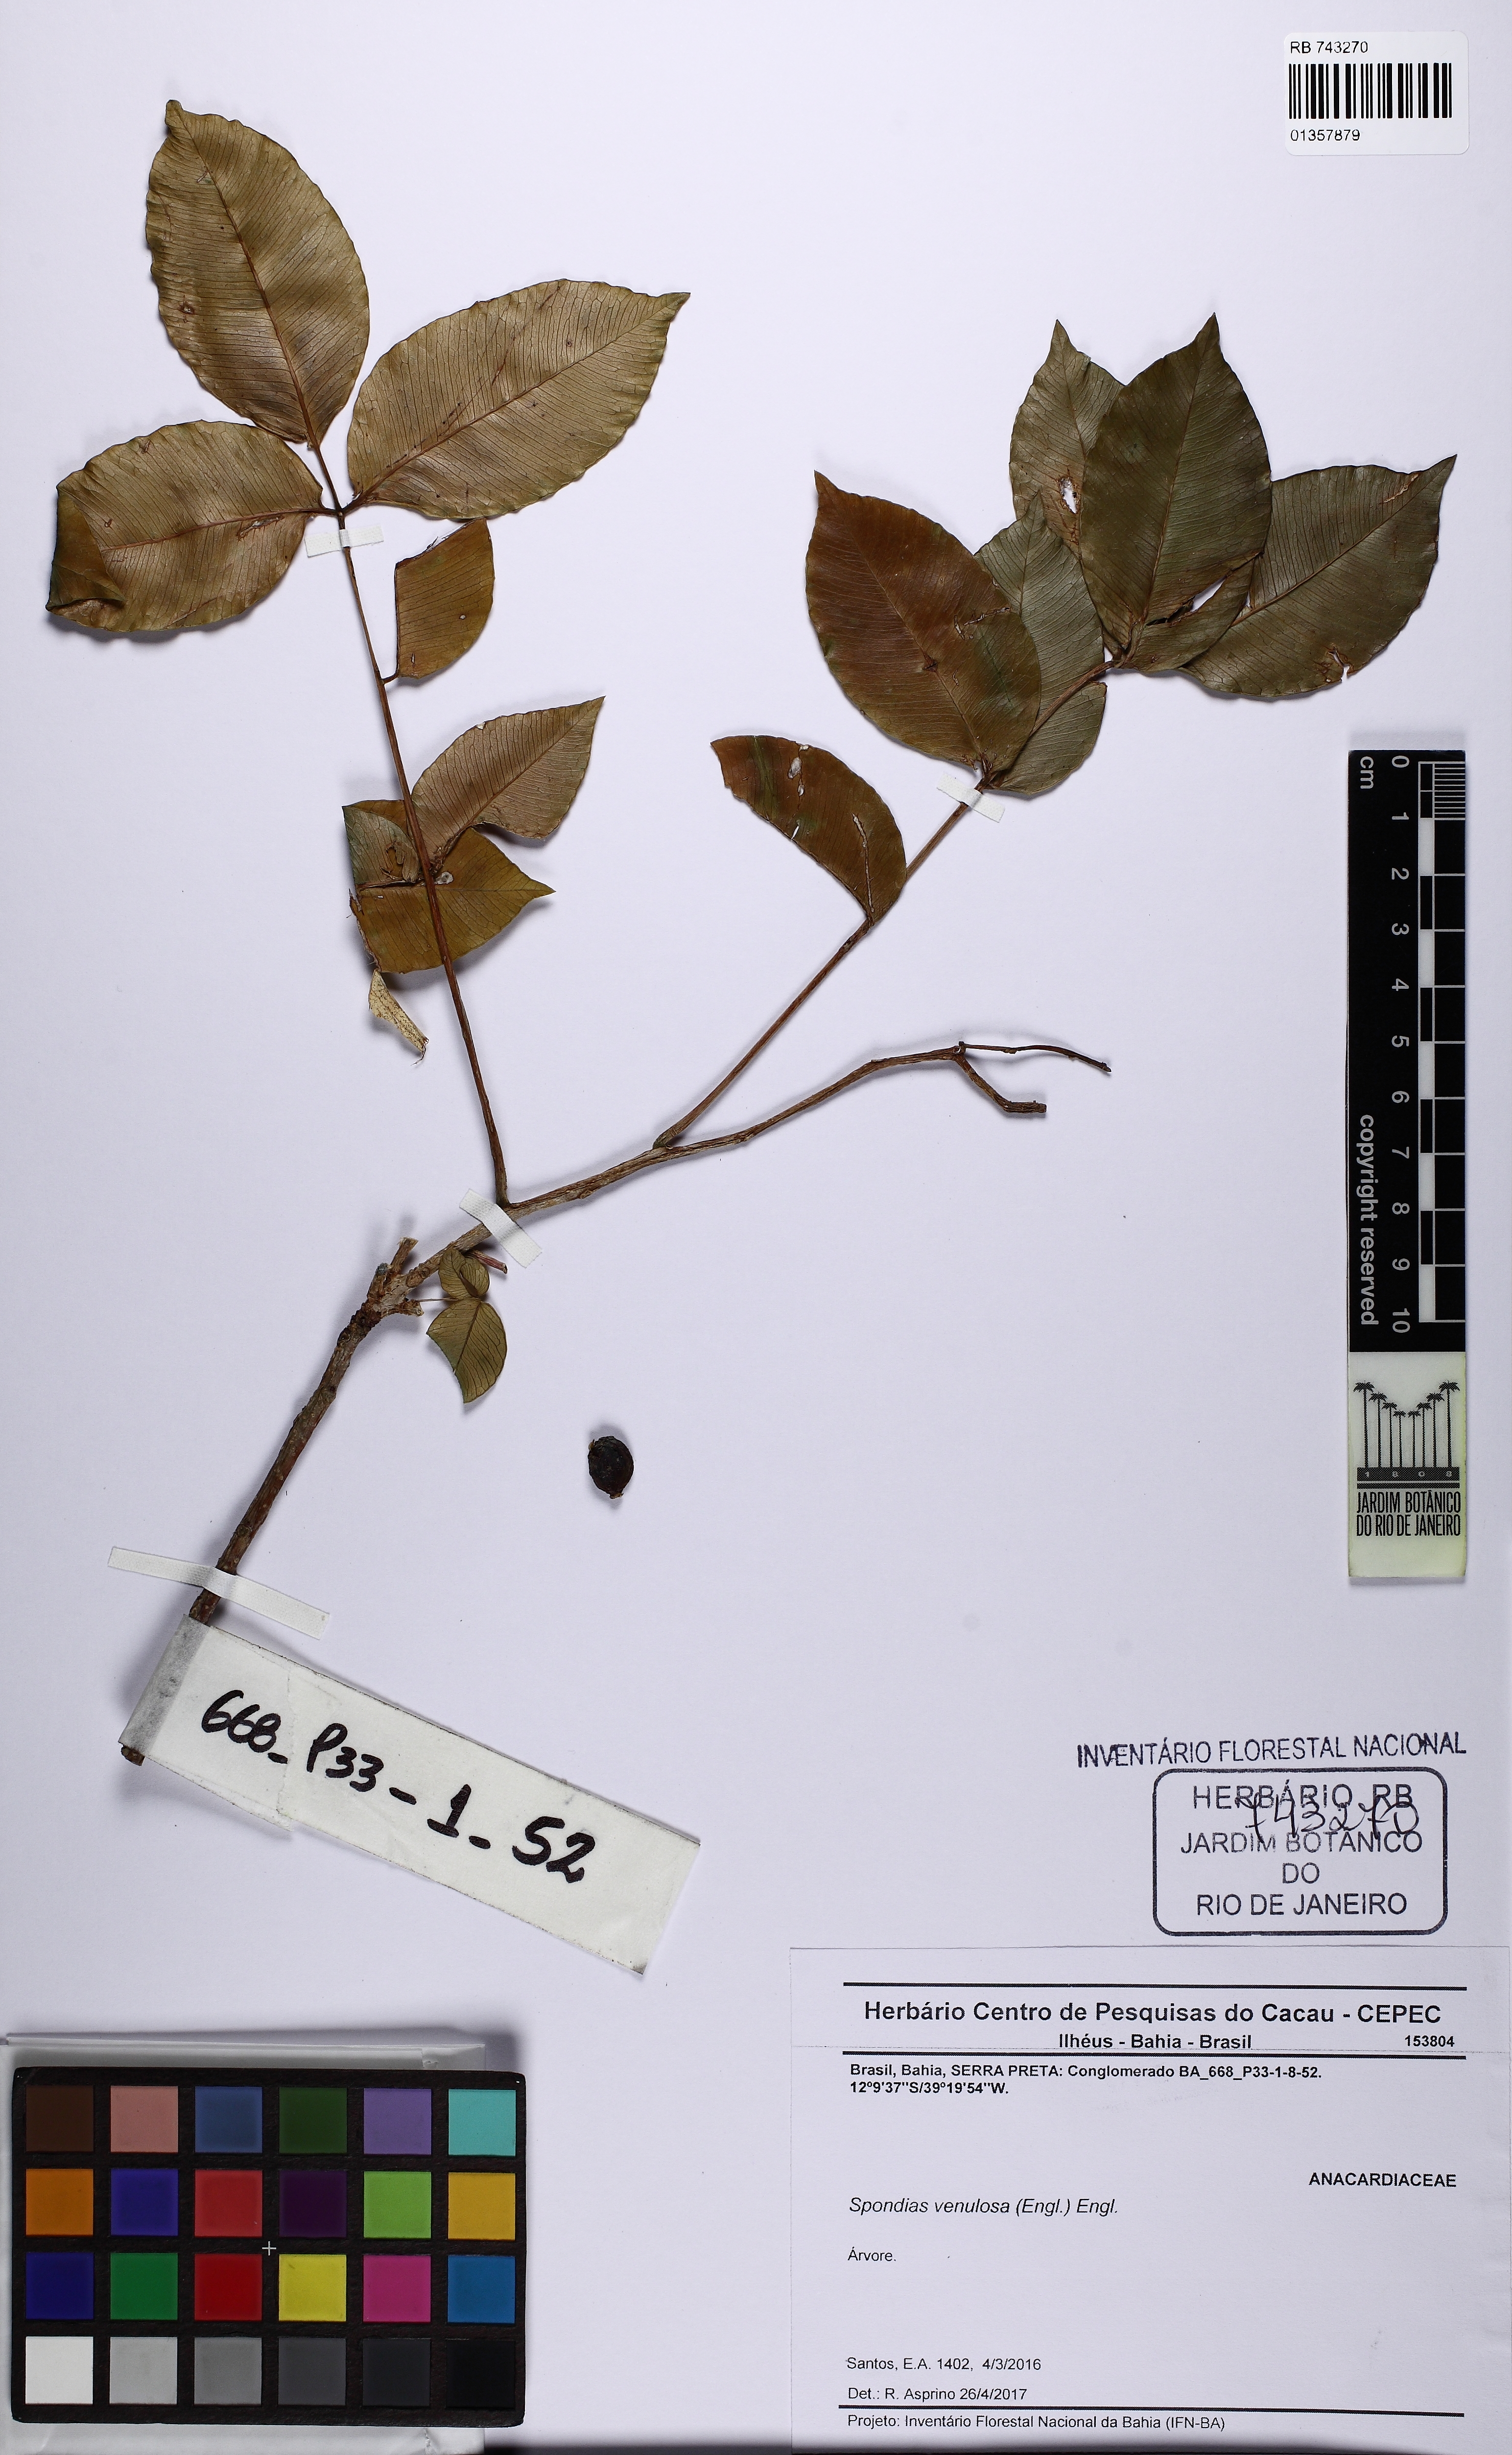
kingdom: Plantae
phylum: Tracheophyta
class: Magnoliopsida
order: Sapindales
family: Anacardiaceae
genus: Spondias
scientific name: Spondias venulosa
